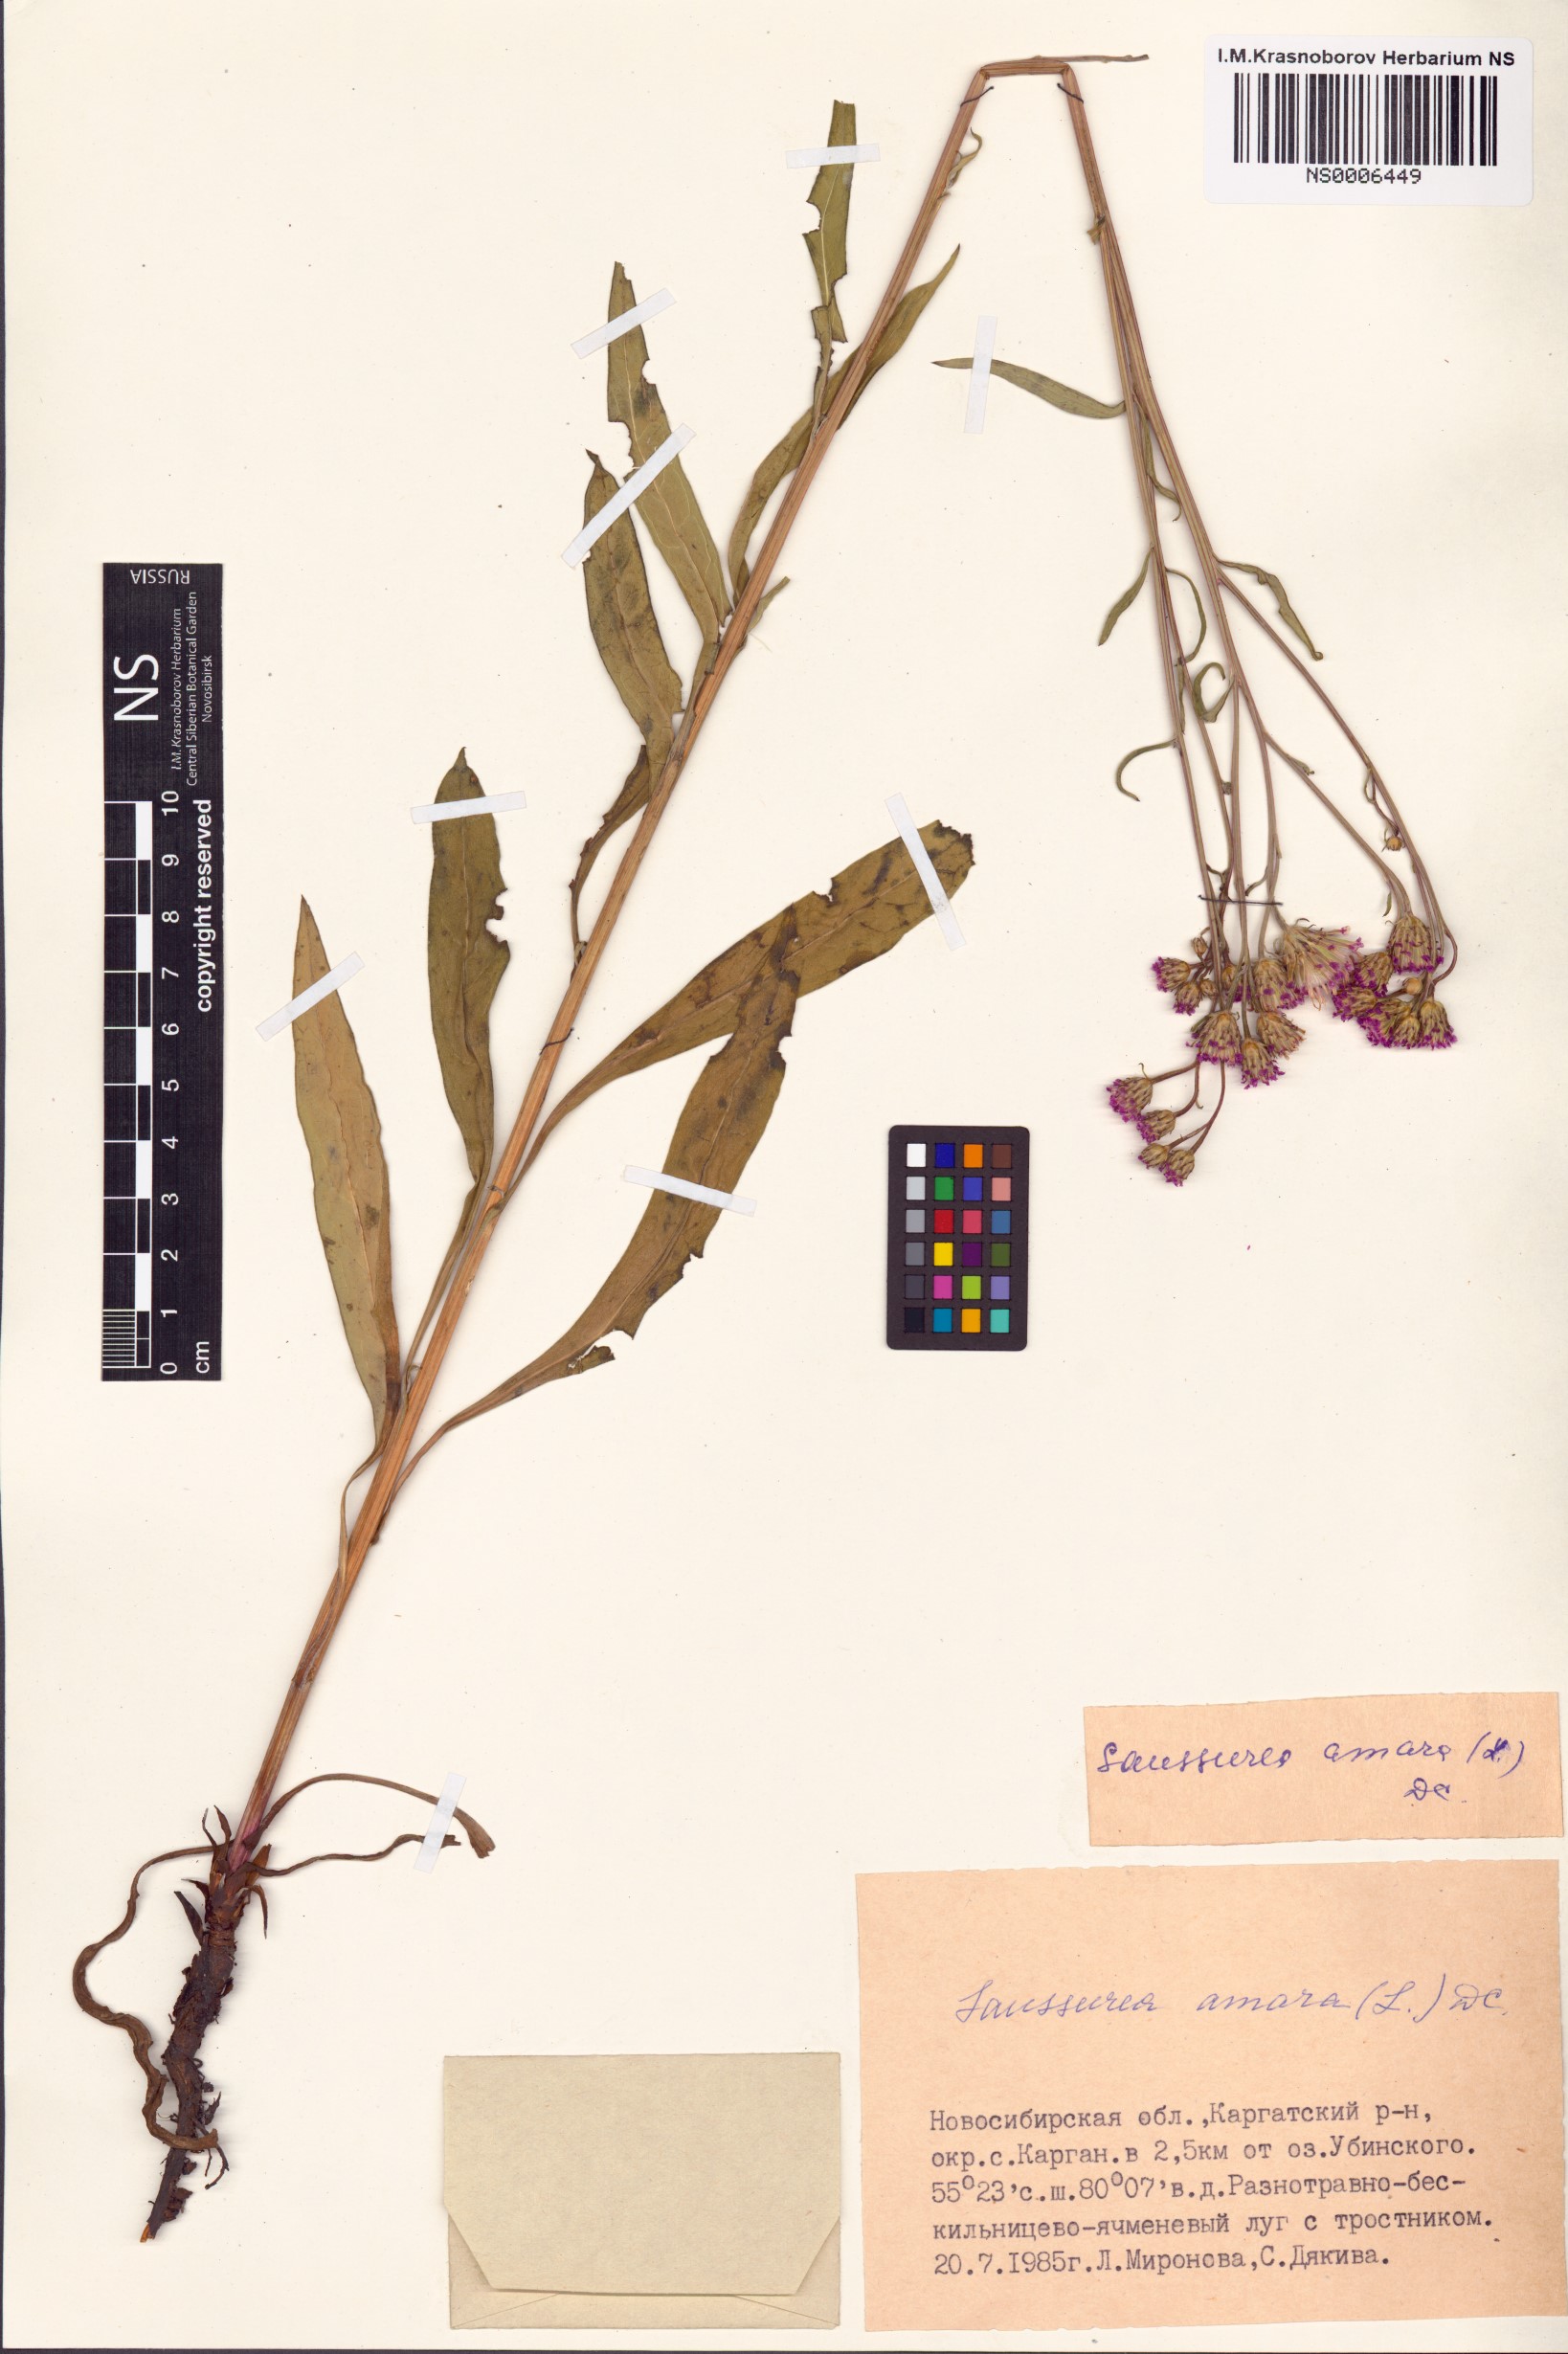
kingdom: Plantae
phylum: Tracheophyta
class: Magnoliopsida
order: Asterales
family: Asteraceae
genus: Saussurea
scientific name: Saussurea amara
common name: Alberta sawwort
